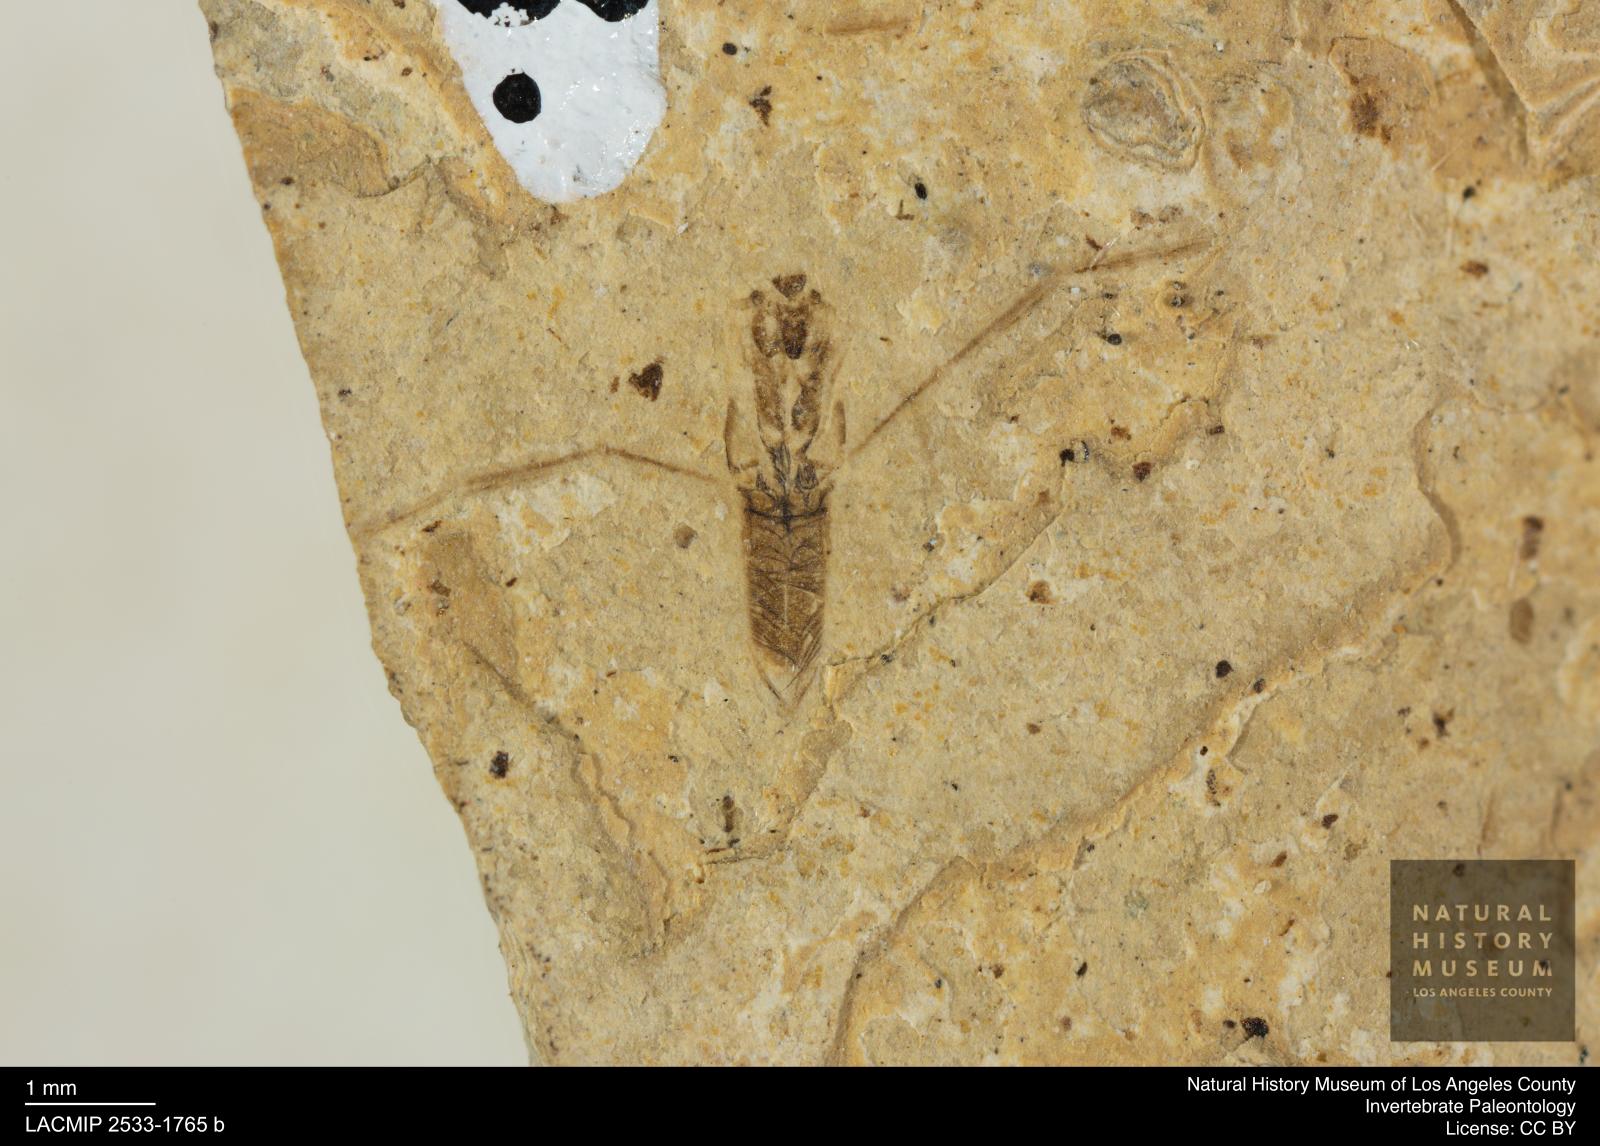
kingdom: Animalia
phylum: Arthropoda
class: Insecta
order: Hemiptera
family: Notonectidae
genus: Notonecta
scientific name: Notonecta
